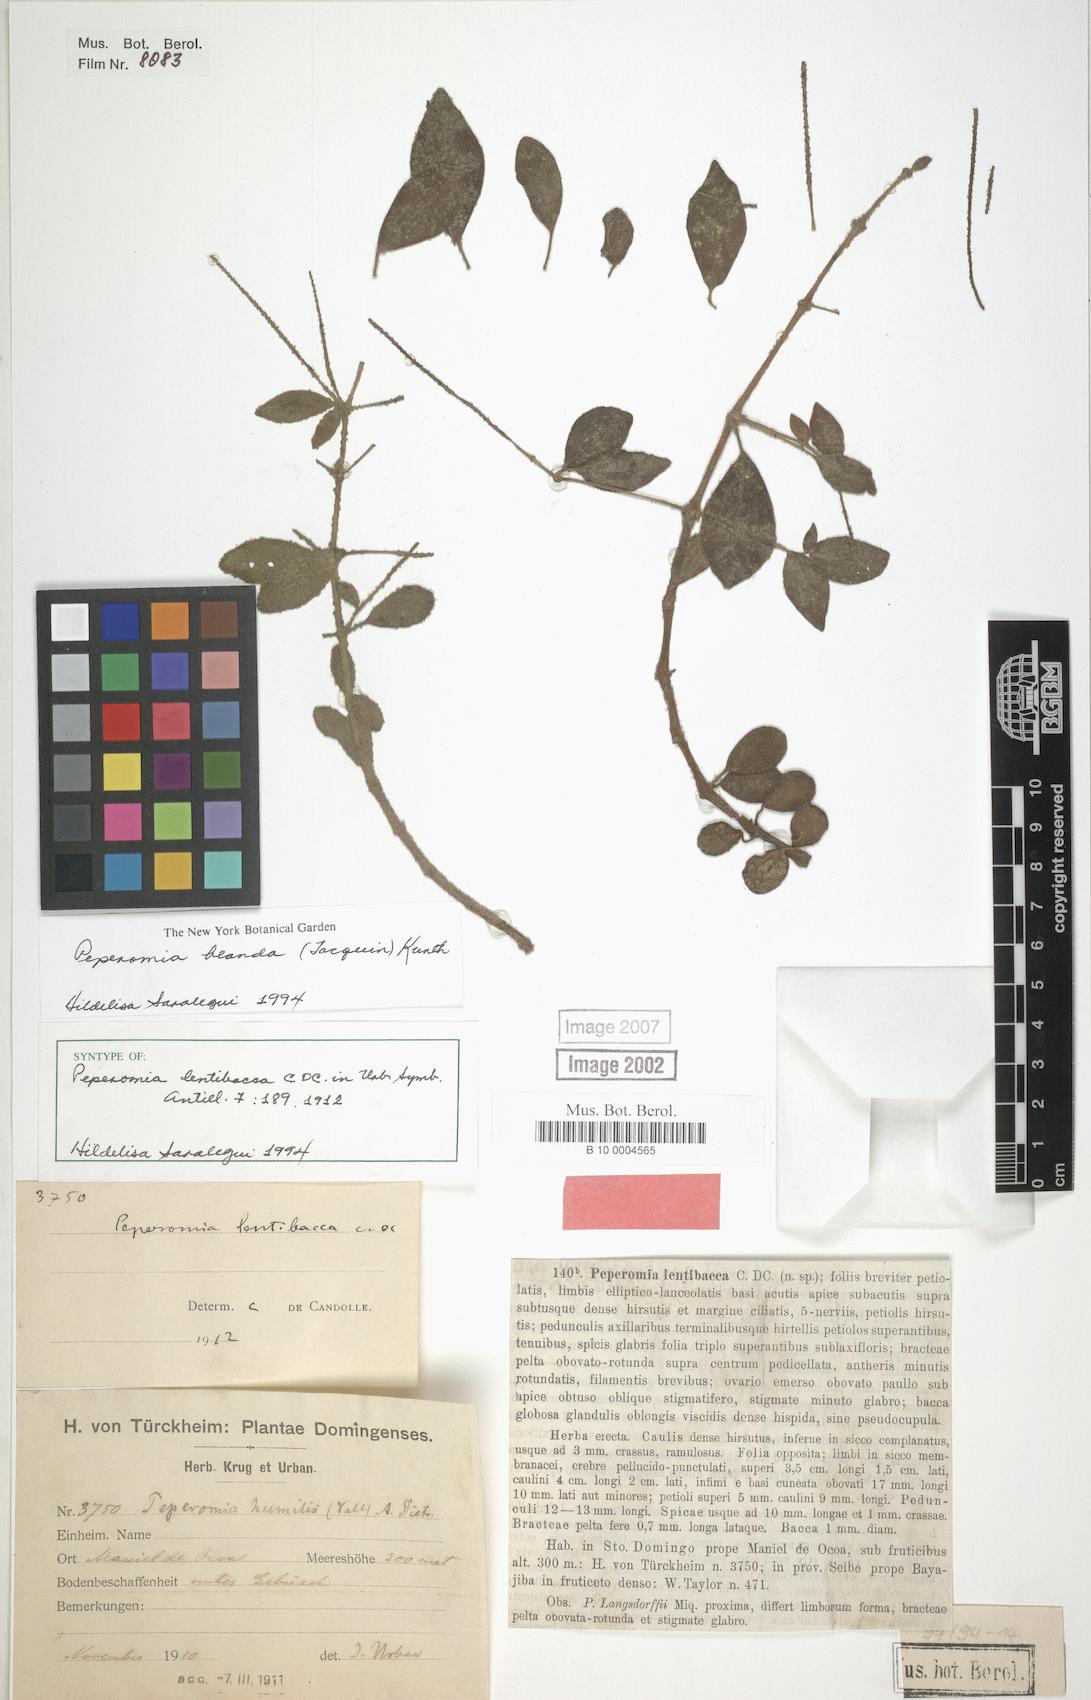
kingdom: Plantae
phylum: Tracheophyta
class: Magnoliopsida
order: Piperales
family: Piperaceae
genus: Peperomia
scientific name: Peperomia blanda
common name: Arid-land peperomia
